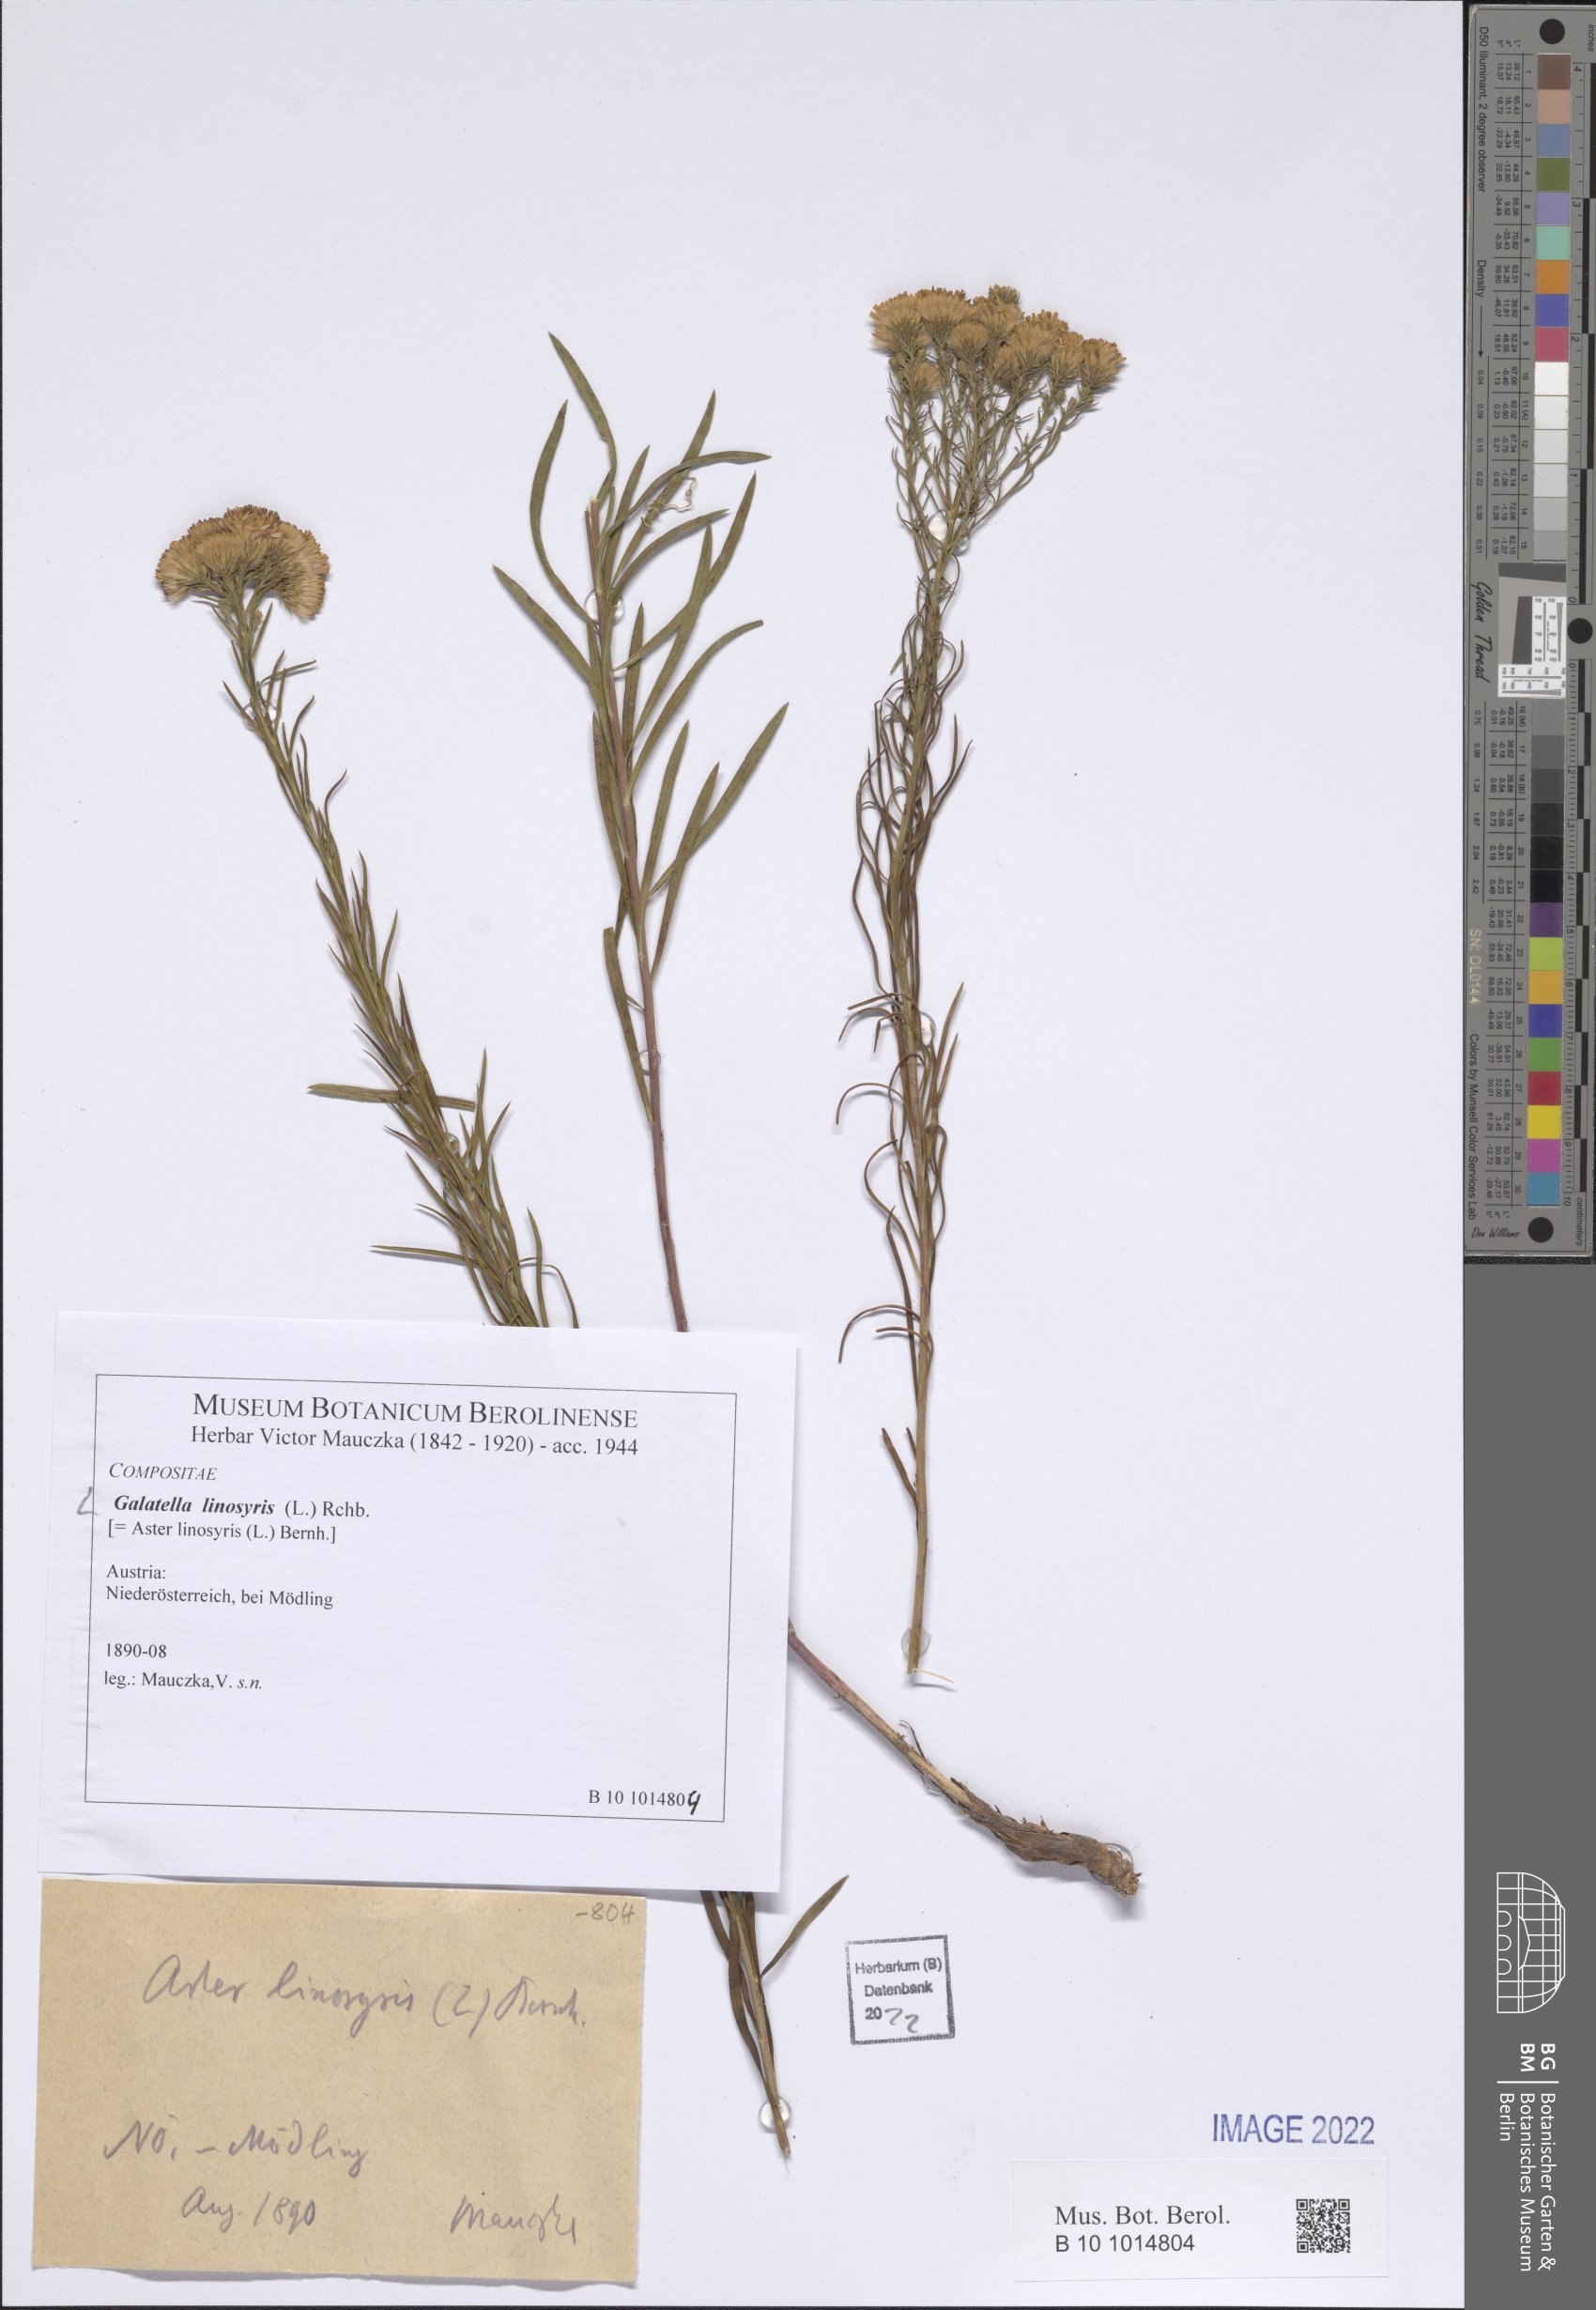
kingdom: Plantae
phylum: Tracheophyta
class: Magnoliopsida
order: Asterales
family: Asteraceae
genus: Galatella
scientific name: Galatella linosyris
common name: Goldilocks aster
